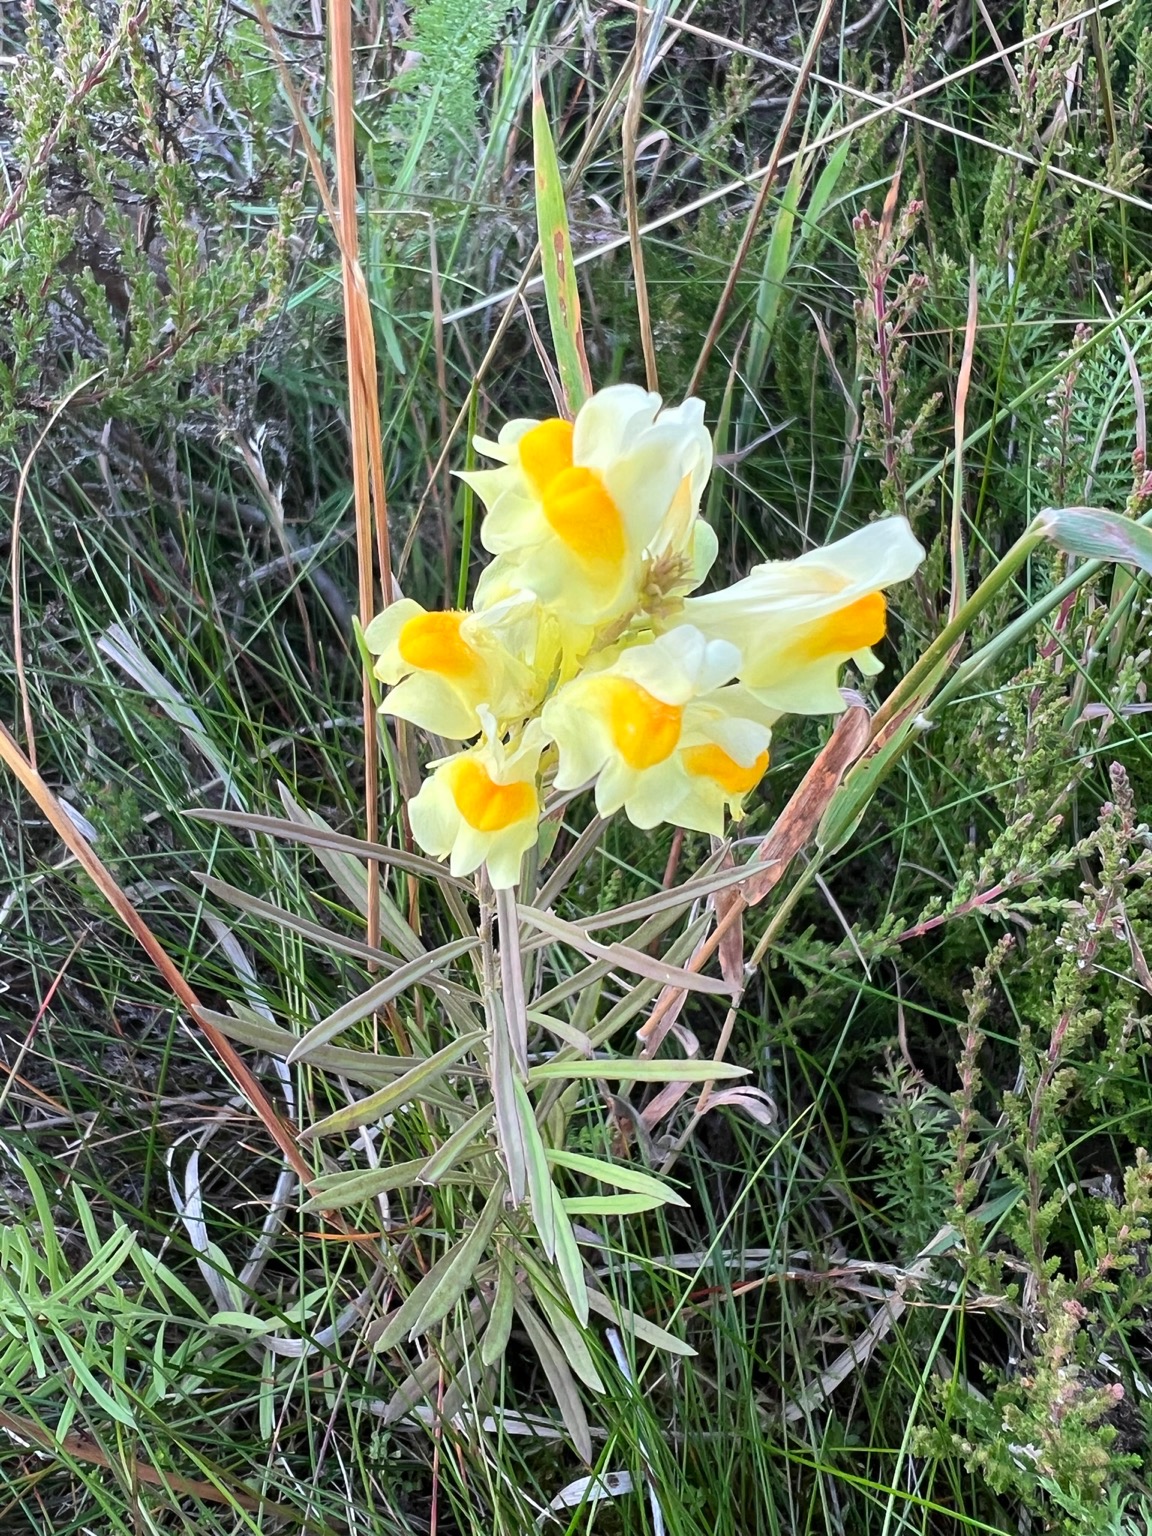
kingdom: Plantae
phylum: Tracheophyta
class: Magnoliopsida
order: Lamiales
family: Plantaginaceae
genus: Linaria
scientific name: Linaria vulgaris
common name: Almindelig torskemund
